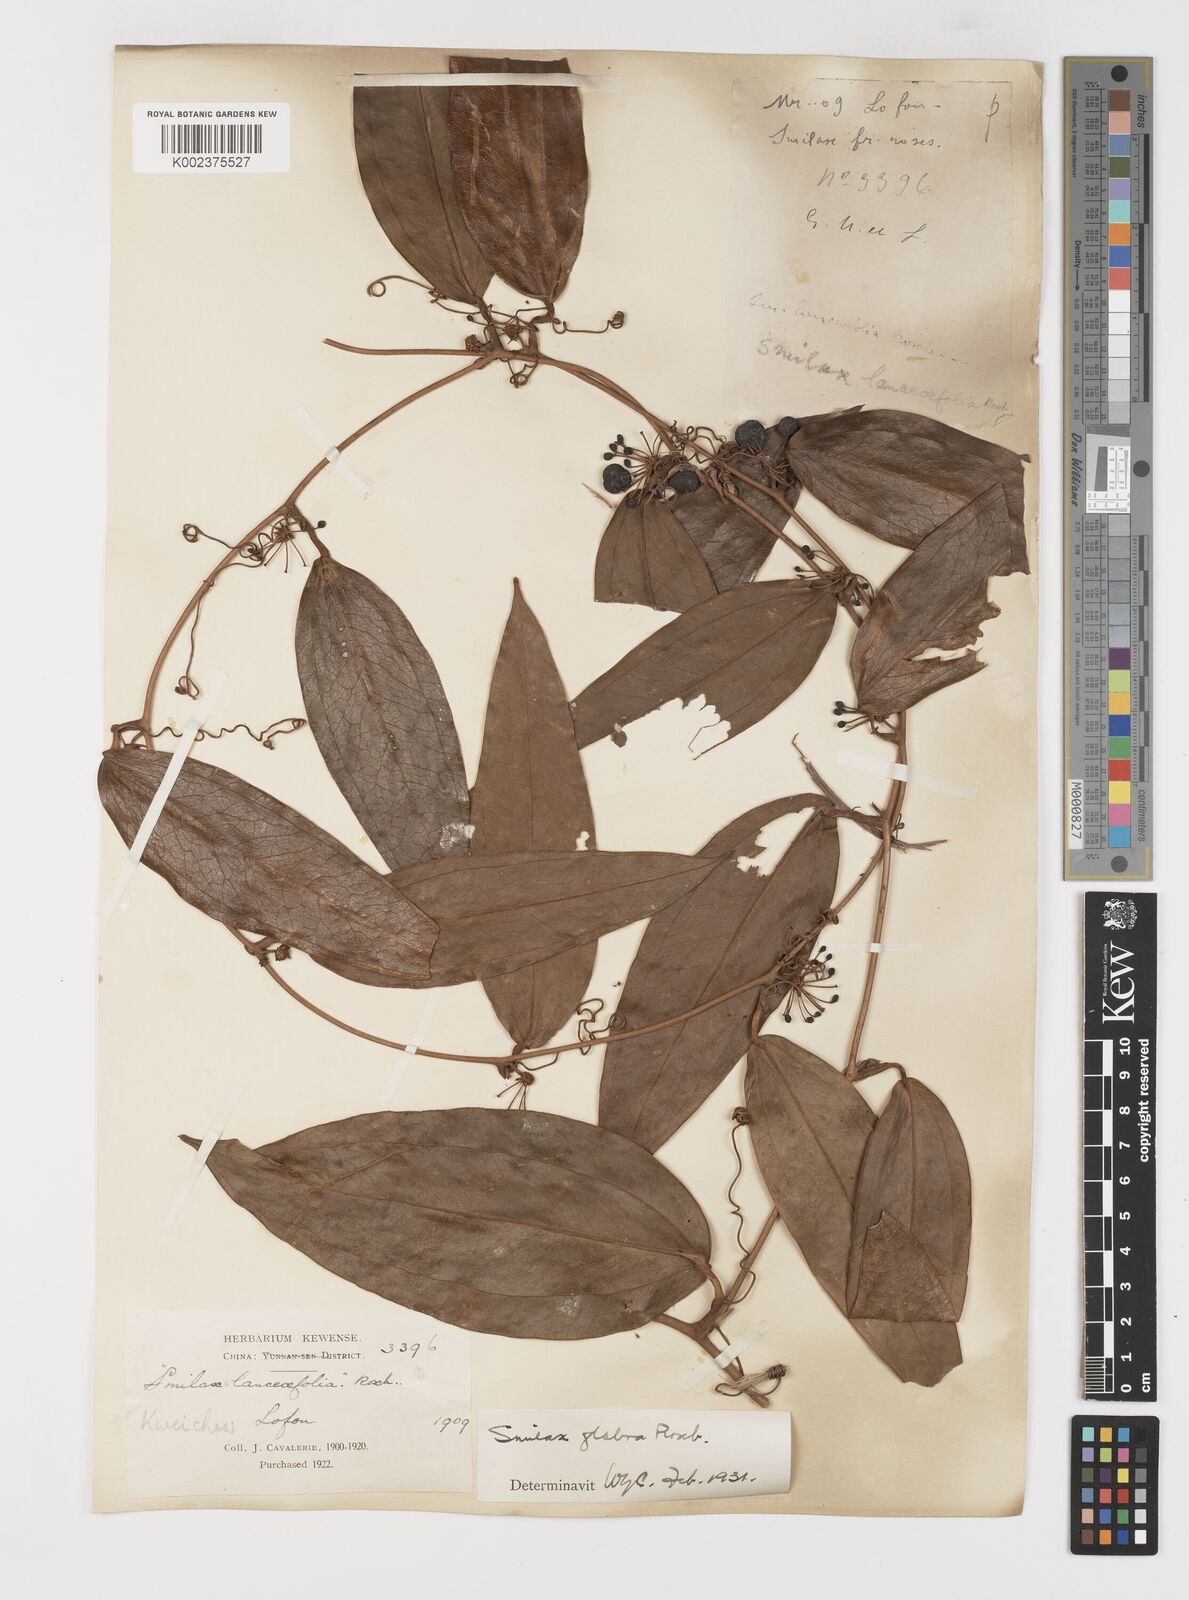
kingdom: Plantae
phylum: Tracheophyta
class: Liliopsida
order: Liliales
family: Smilacaceae
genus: Smilax
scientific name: Smilax laevis
